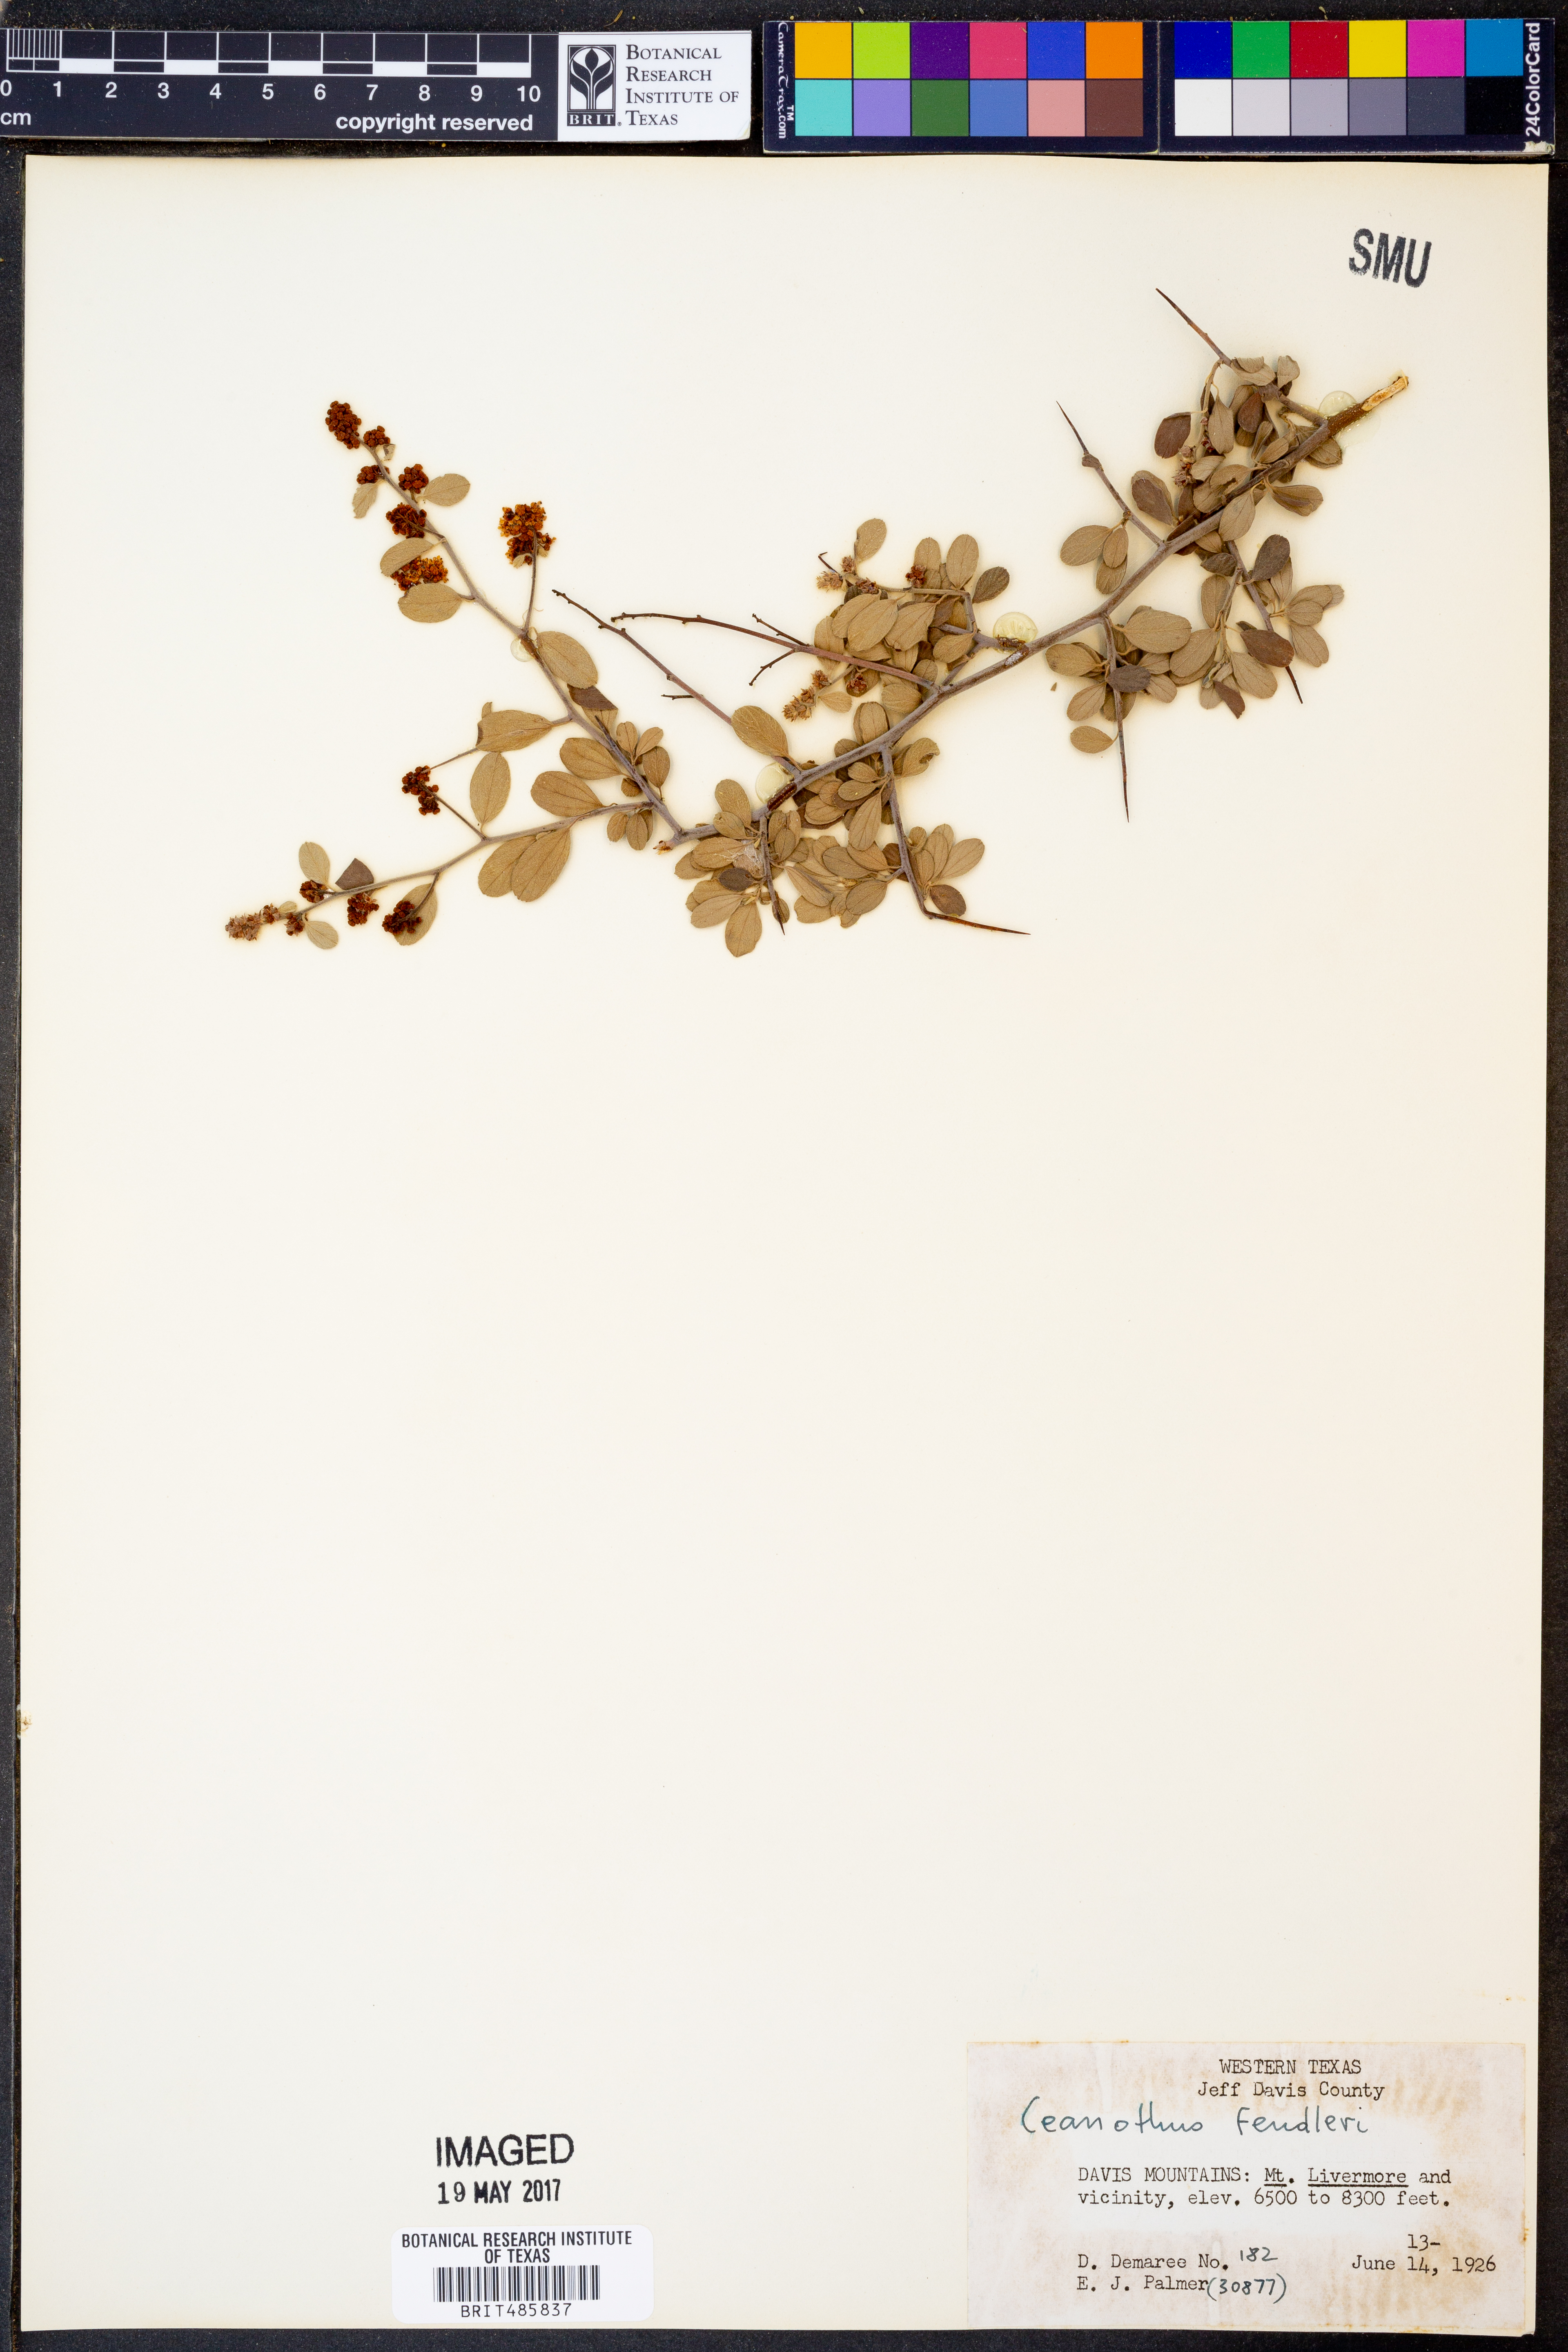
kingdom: Plantae
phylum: Tracheophyta
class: Magnoliopsida
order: Rosales
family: Rhamnaceae
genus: Ceanothus
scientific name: Ceanothus fendleri
